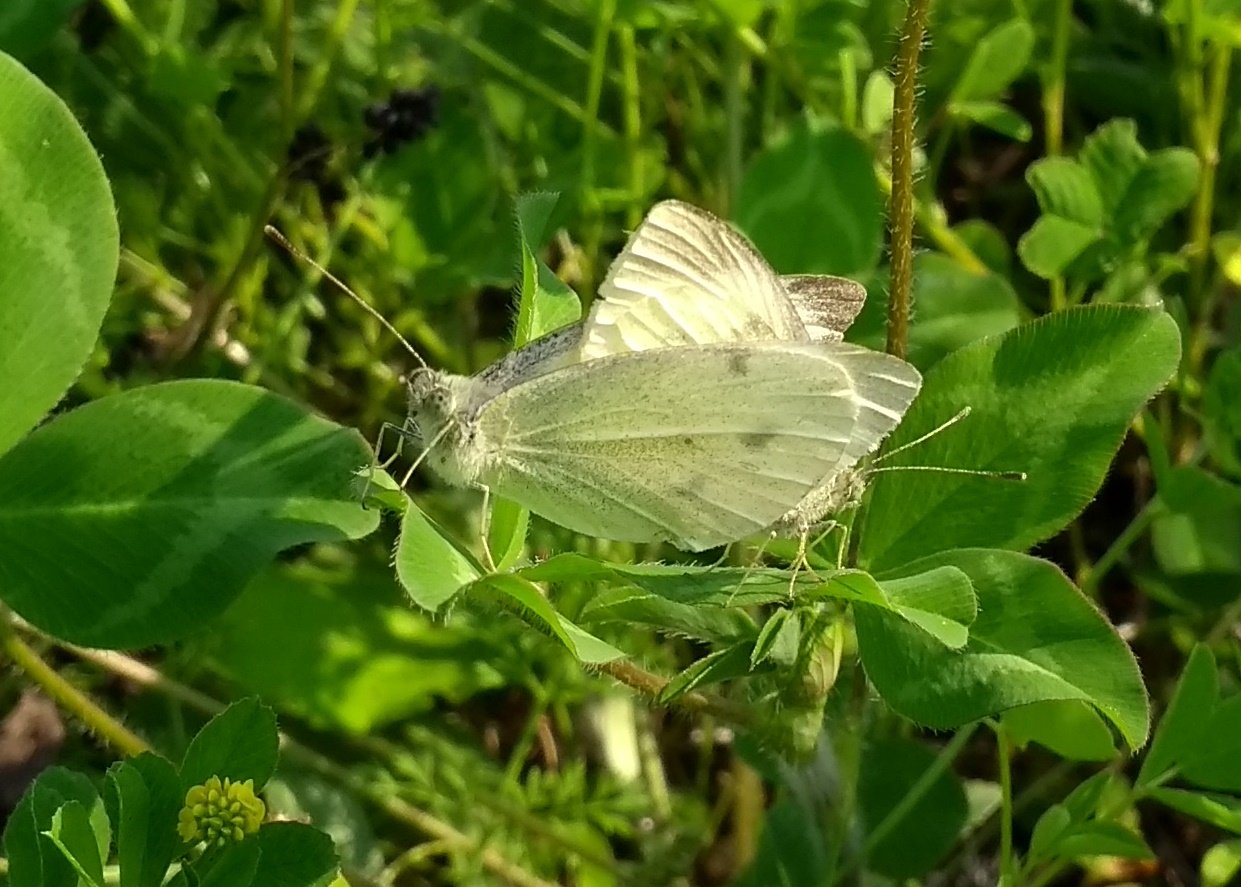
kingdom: Animalia
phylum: Arthropoda
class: Insecta
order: Lepidoptera
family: Pieridae
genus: Pieris
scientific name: Pieris rapae
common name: Cabbage White
